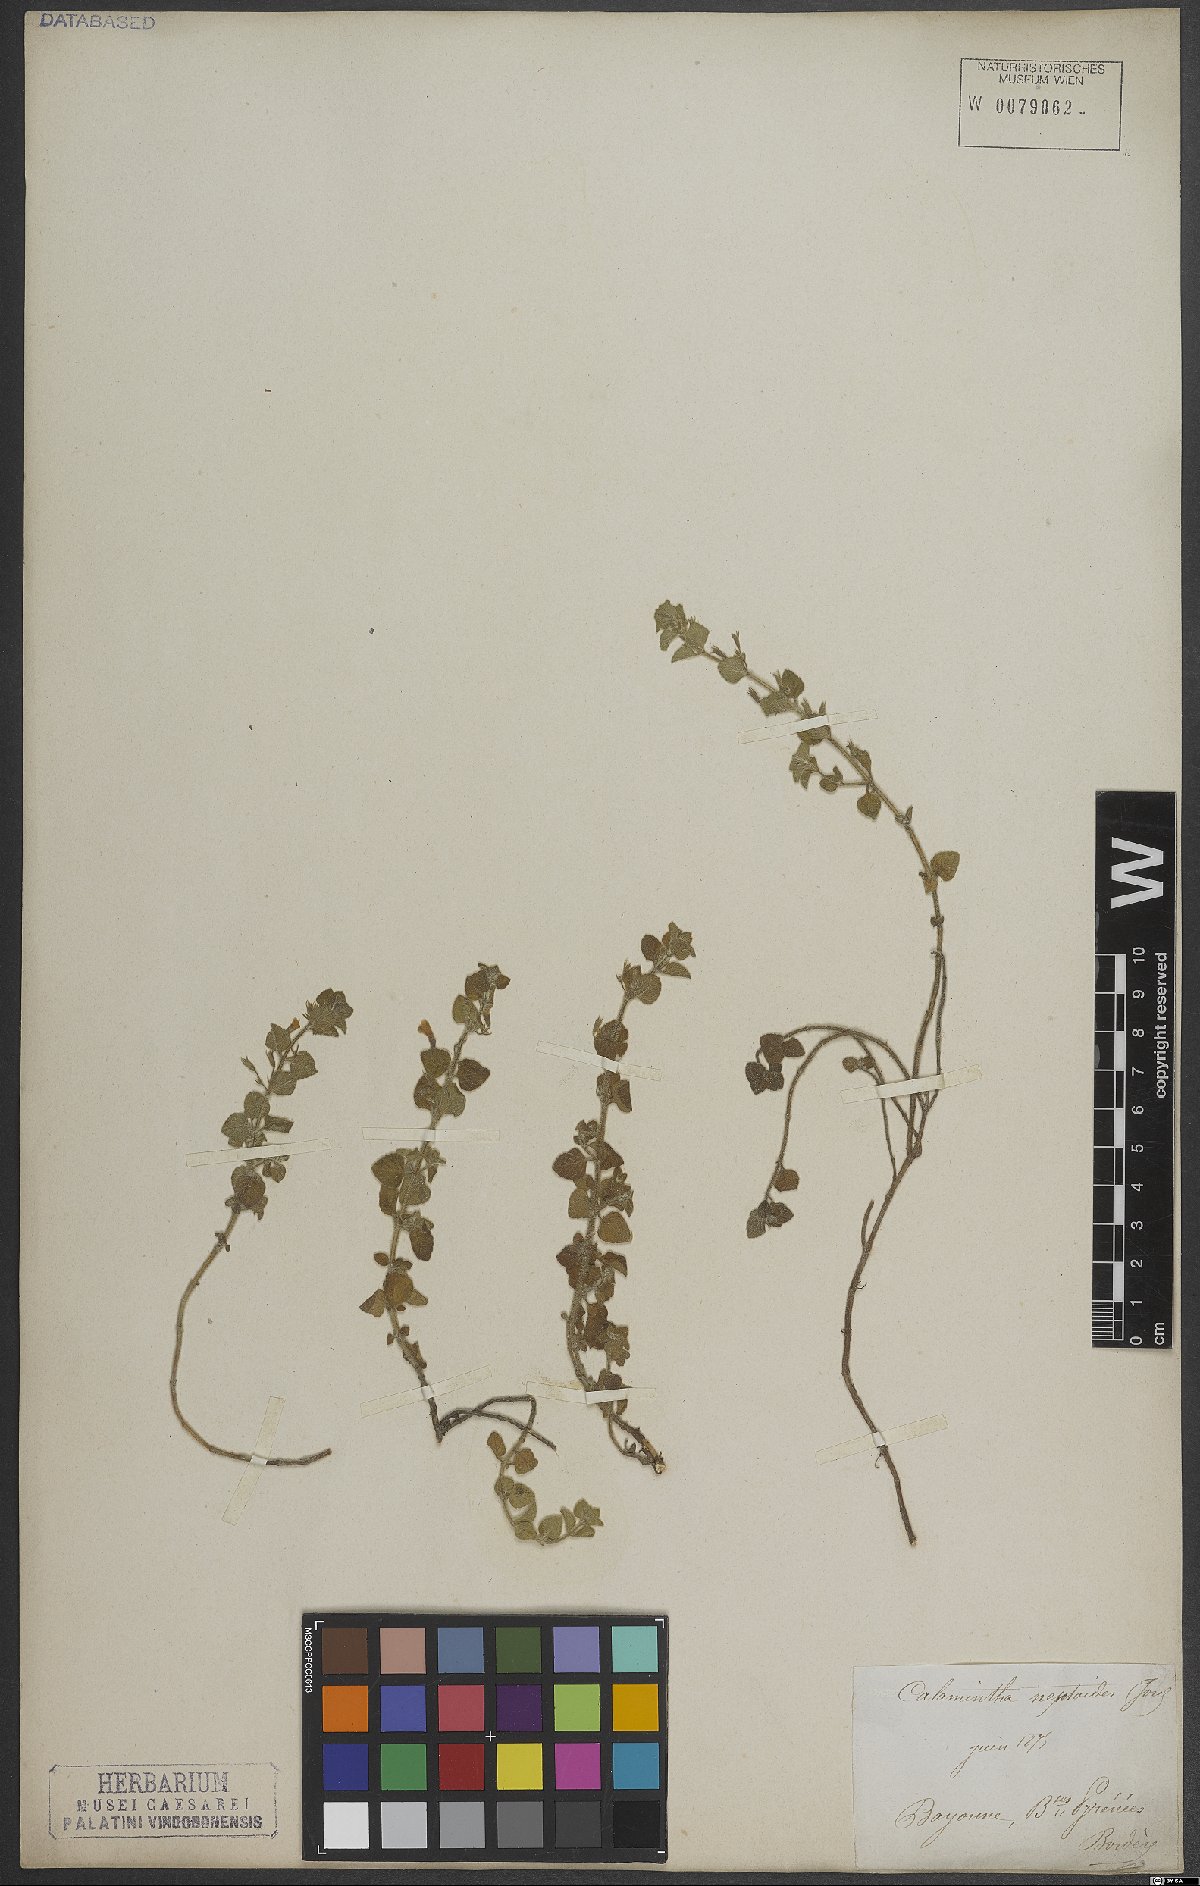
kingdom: Plantae
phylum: Tracheophyta
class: Magnoliopsida
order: Lamiales
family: Lamiaceae
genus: Clinopodium
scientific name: Clinopodium nepeta
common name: Lesser calamint
